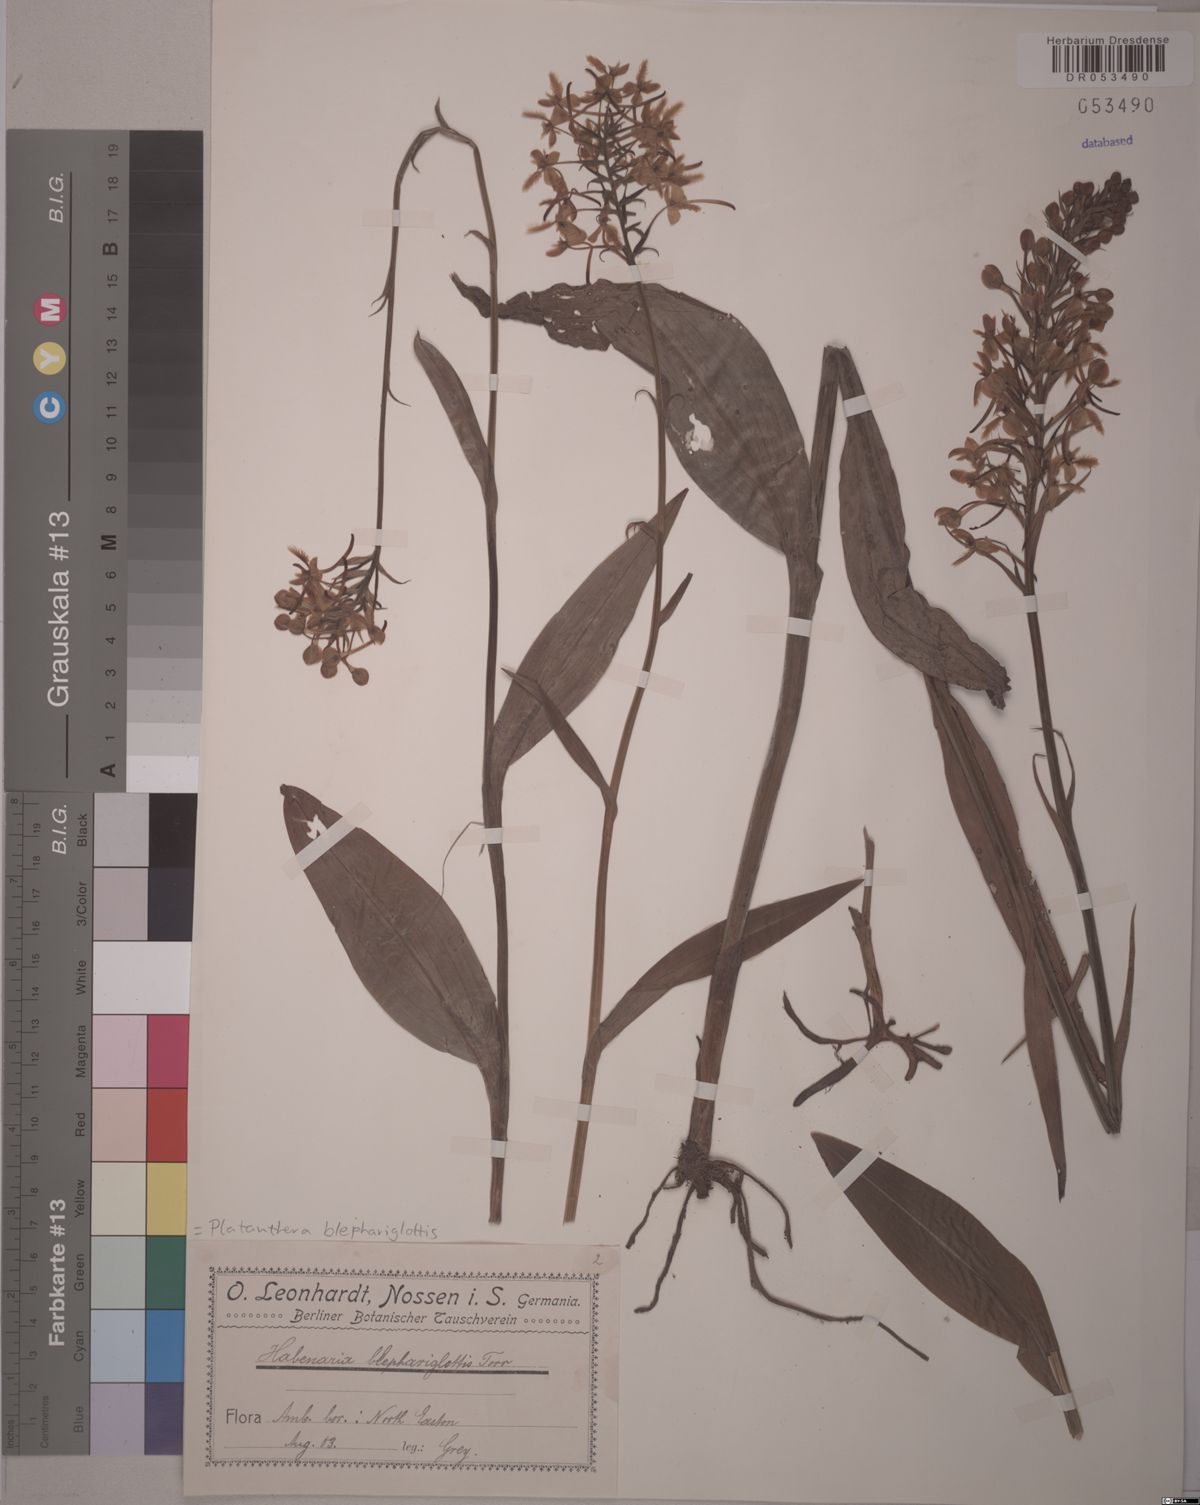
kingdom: Plantae
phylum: Tracheophyta
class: Liliopsida
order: Asparagales
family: Orchidaceae
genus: Platanthera
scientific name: Platanthera blephariglottis
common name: White fringed orchid
